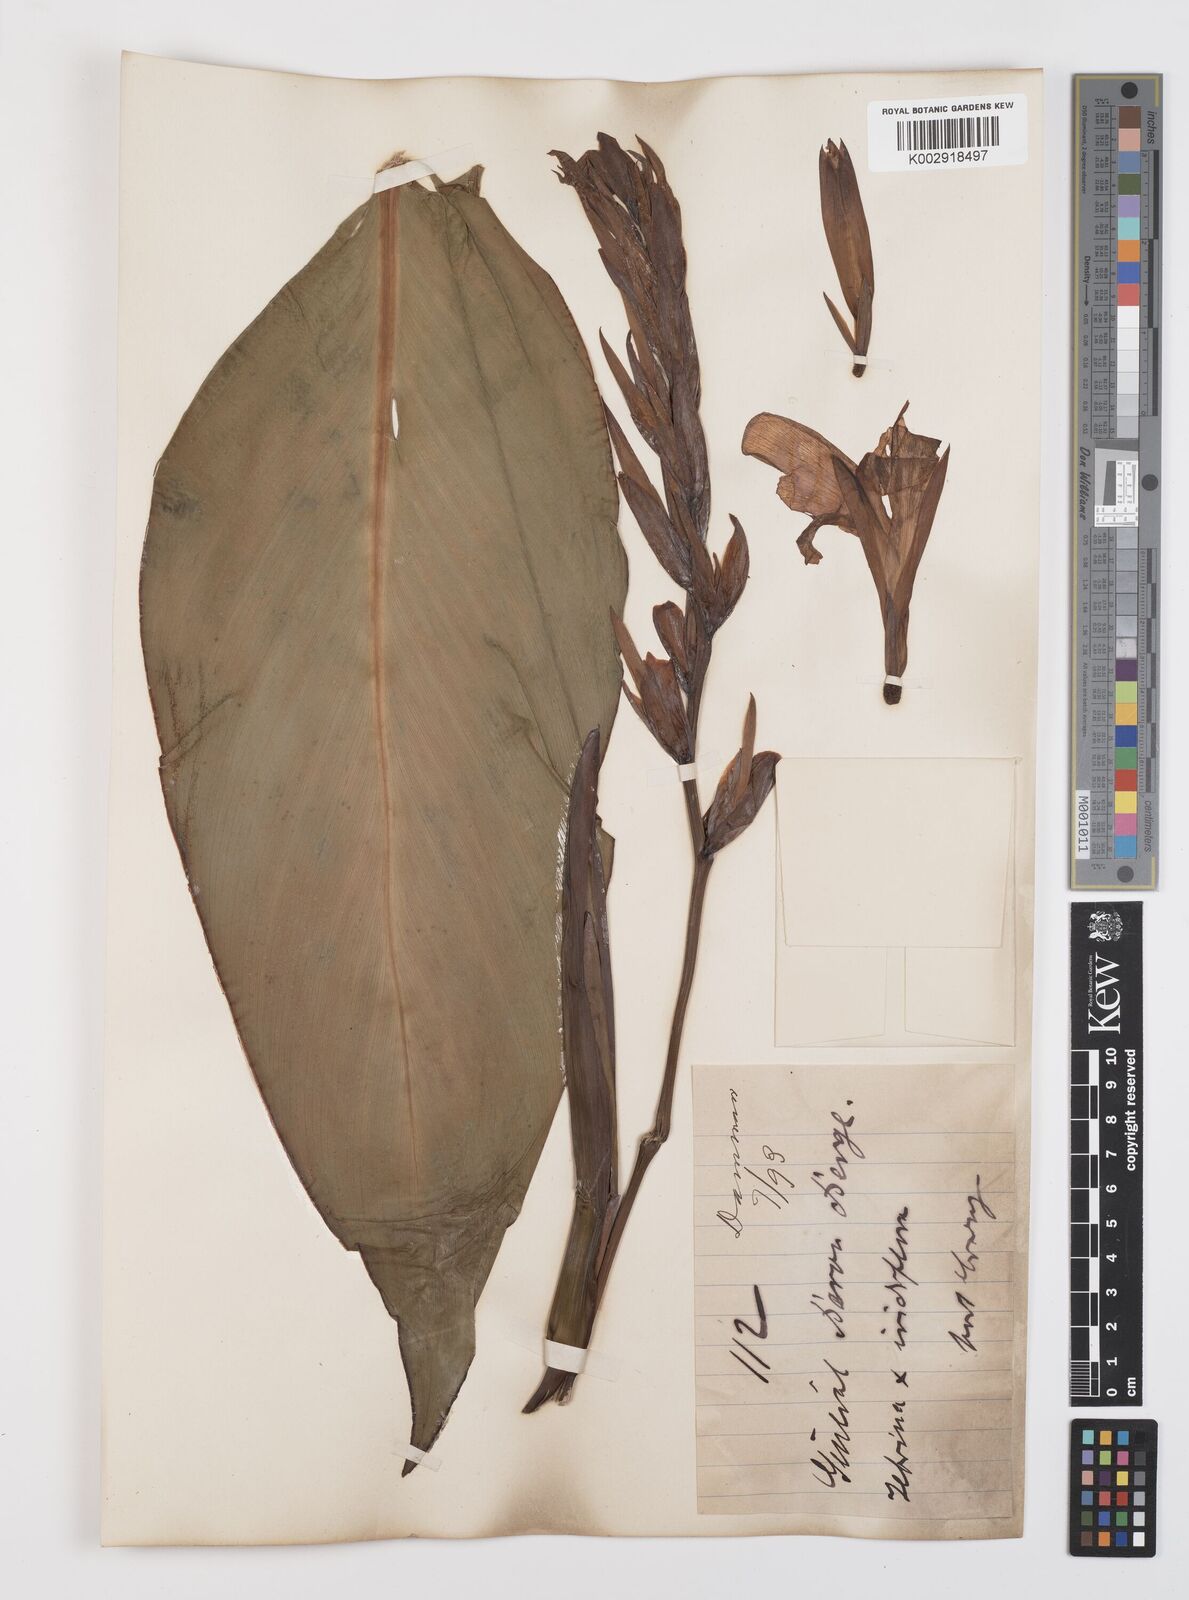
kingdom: Plantae
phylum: Tracheophyta
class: Liliopsida
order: Zingiberales
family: Cannaceae
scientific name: Cannaceae
